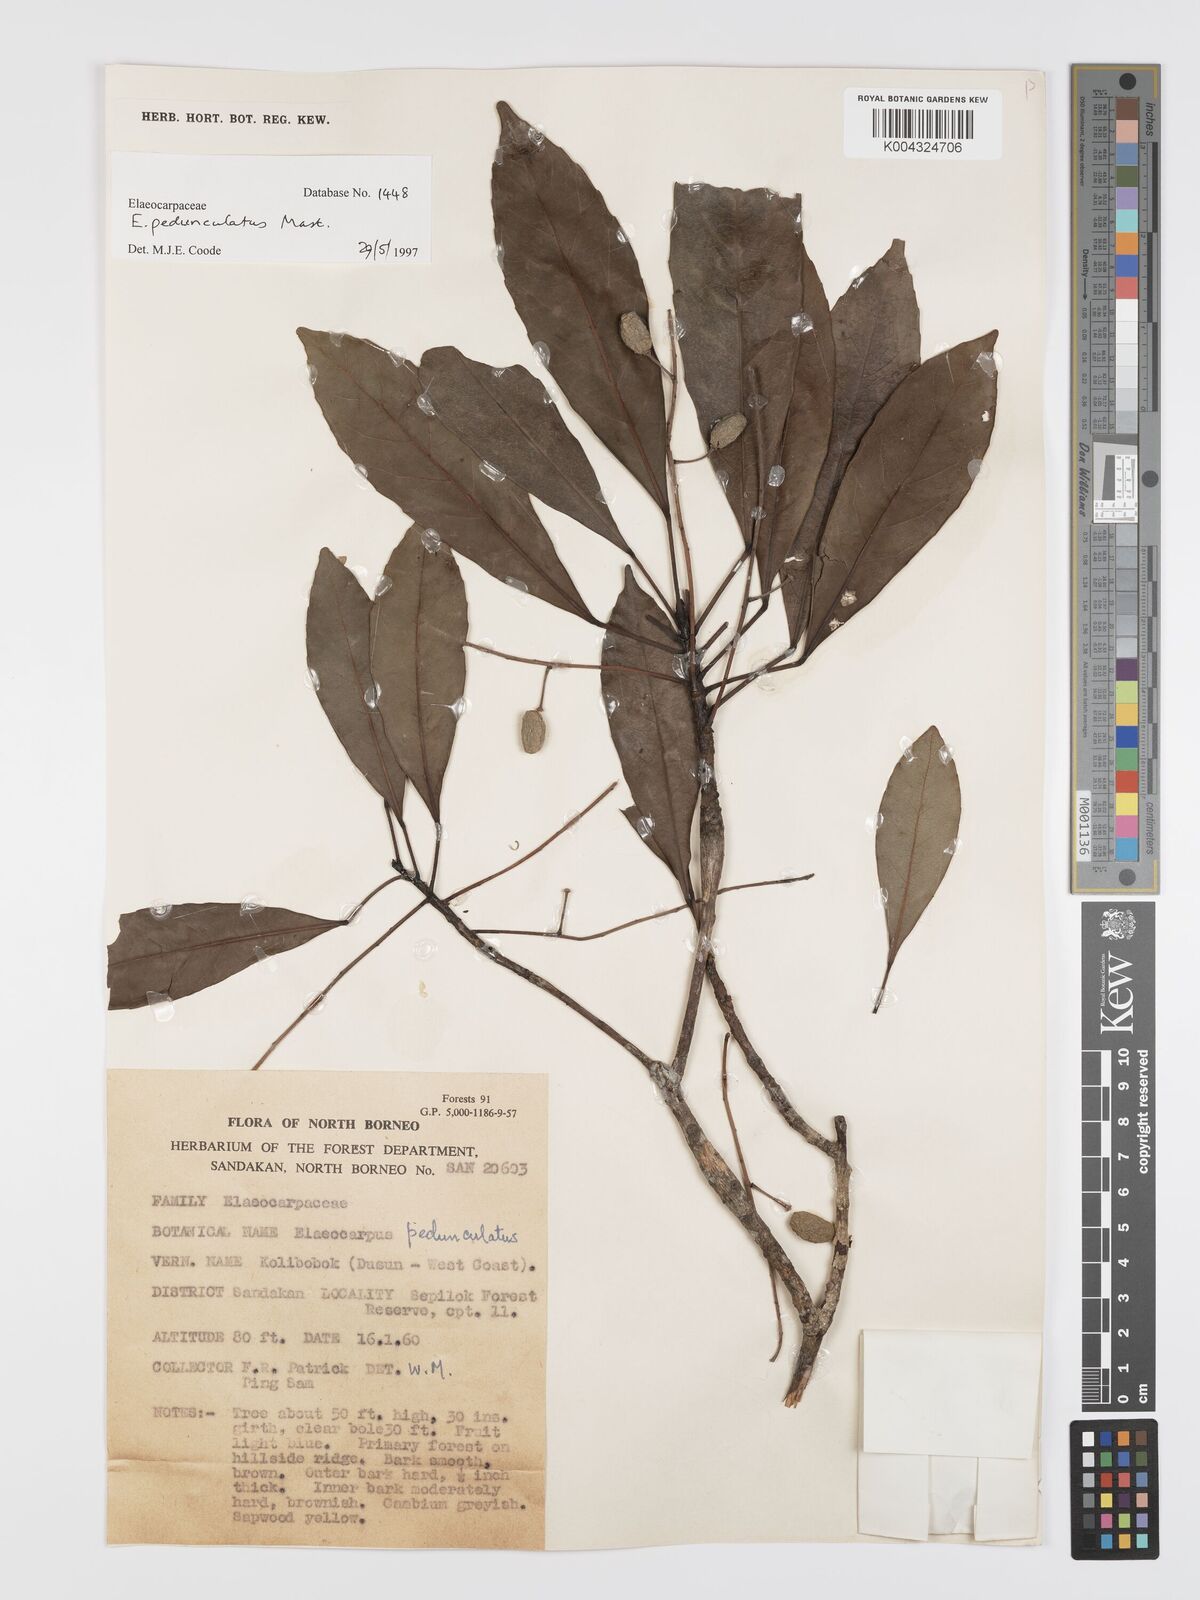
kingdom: Plantae
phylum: Tracheophyta
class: Magnoliopsida
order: Oxalidales
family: Elaeocarpaceae
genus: Elaeocarpus
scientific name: Elaeocarpus pedunculatus
